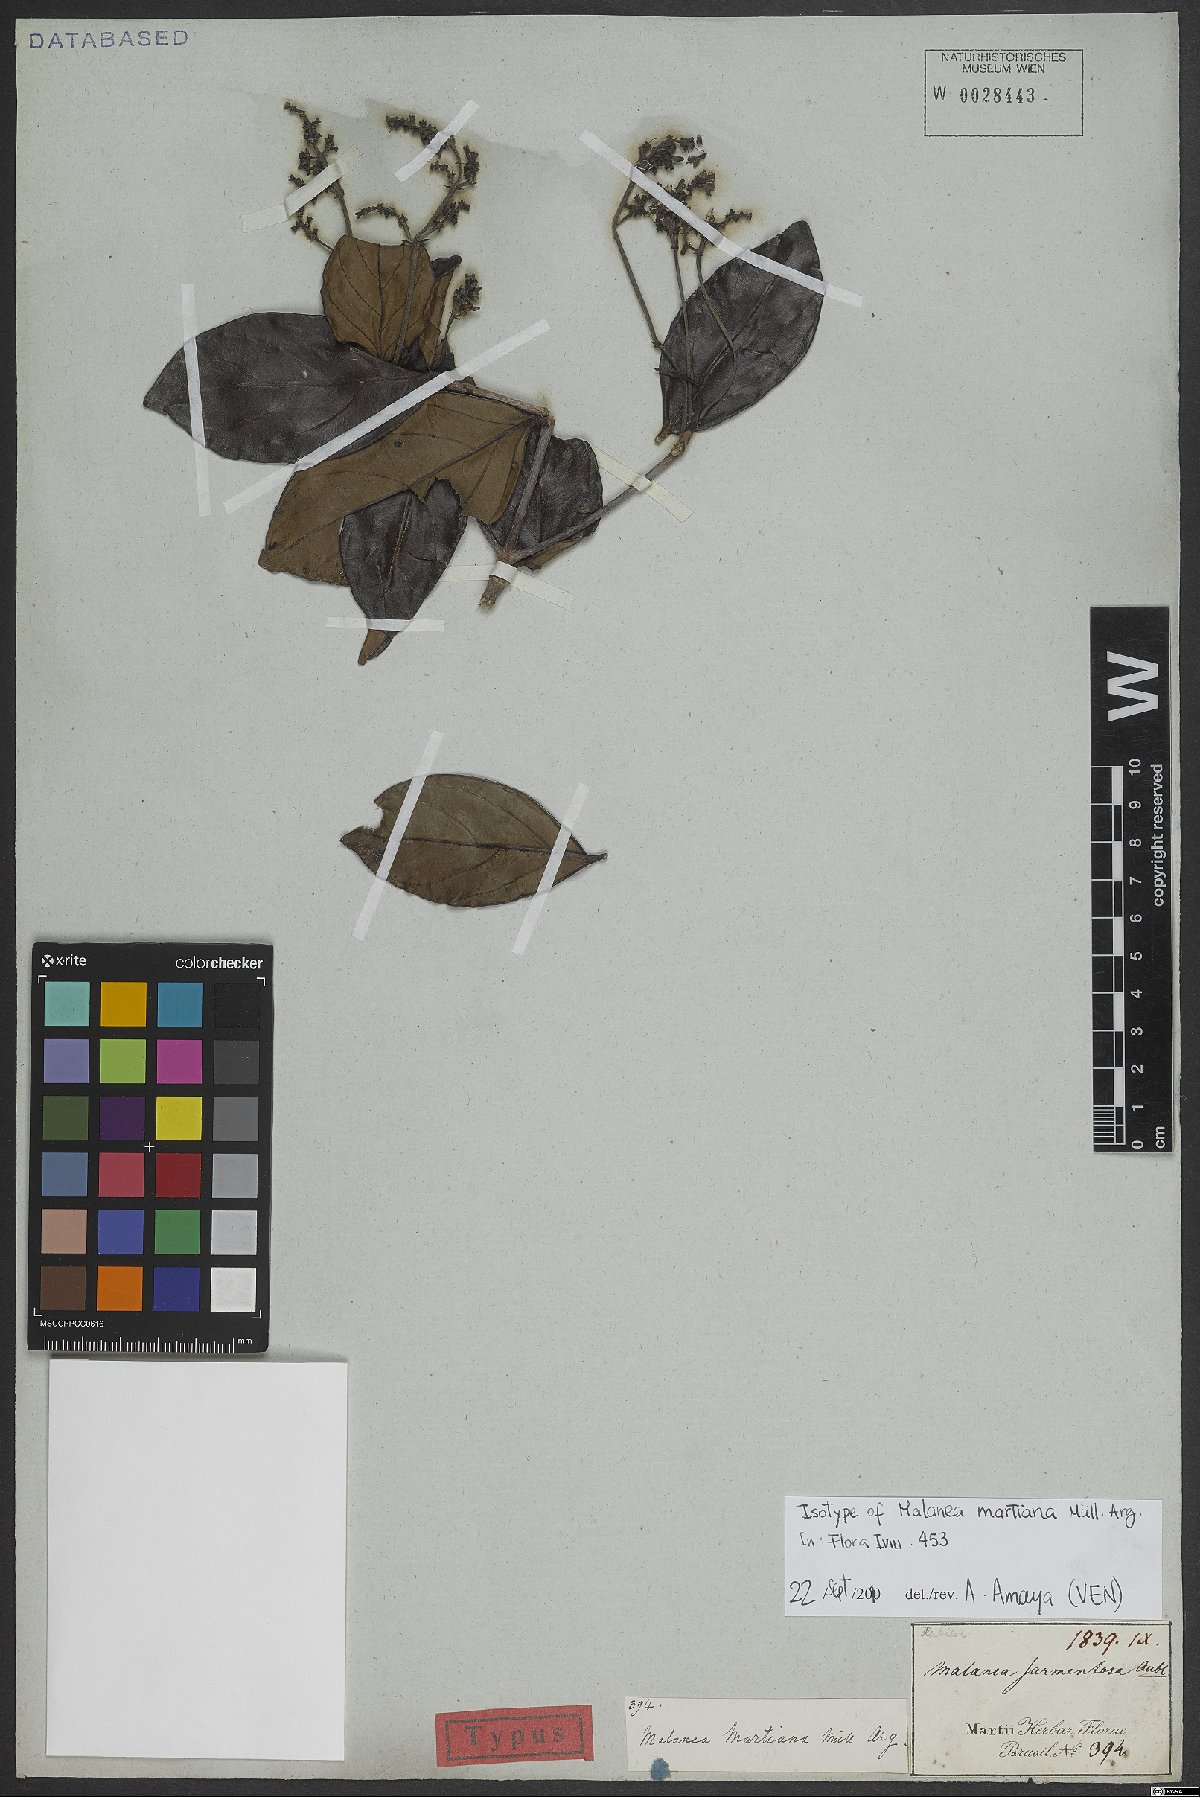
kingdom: Plantae
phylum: Tracheophyta
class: Magnoliopsida
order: Gentianales
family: Rubiaceae
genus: Malanea
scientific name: Malanea martiana
